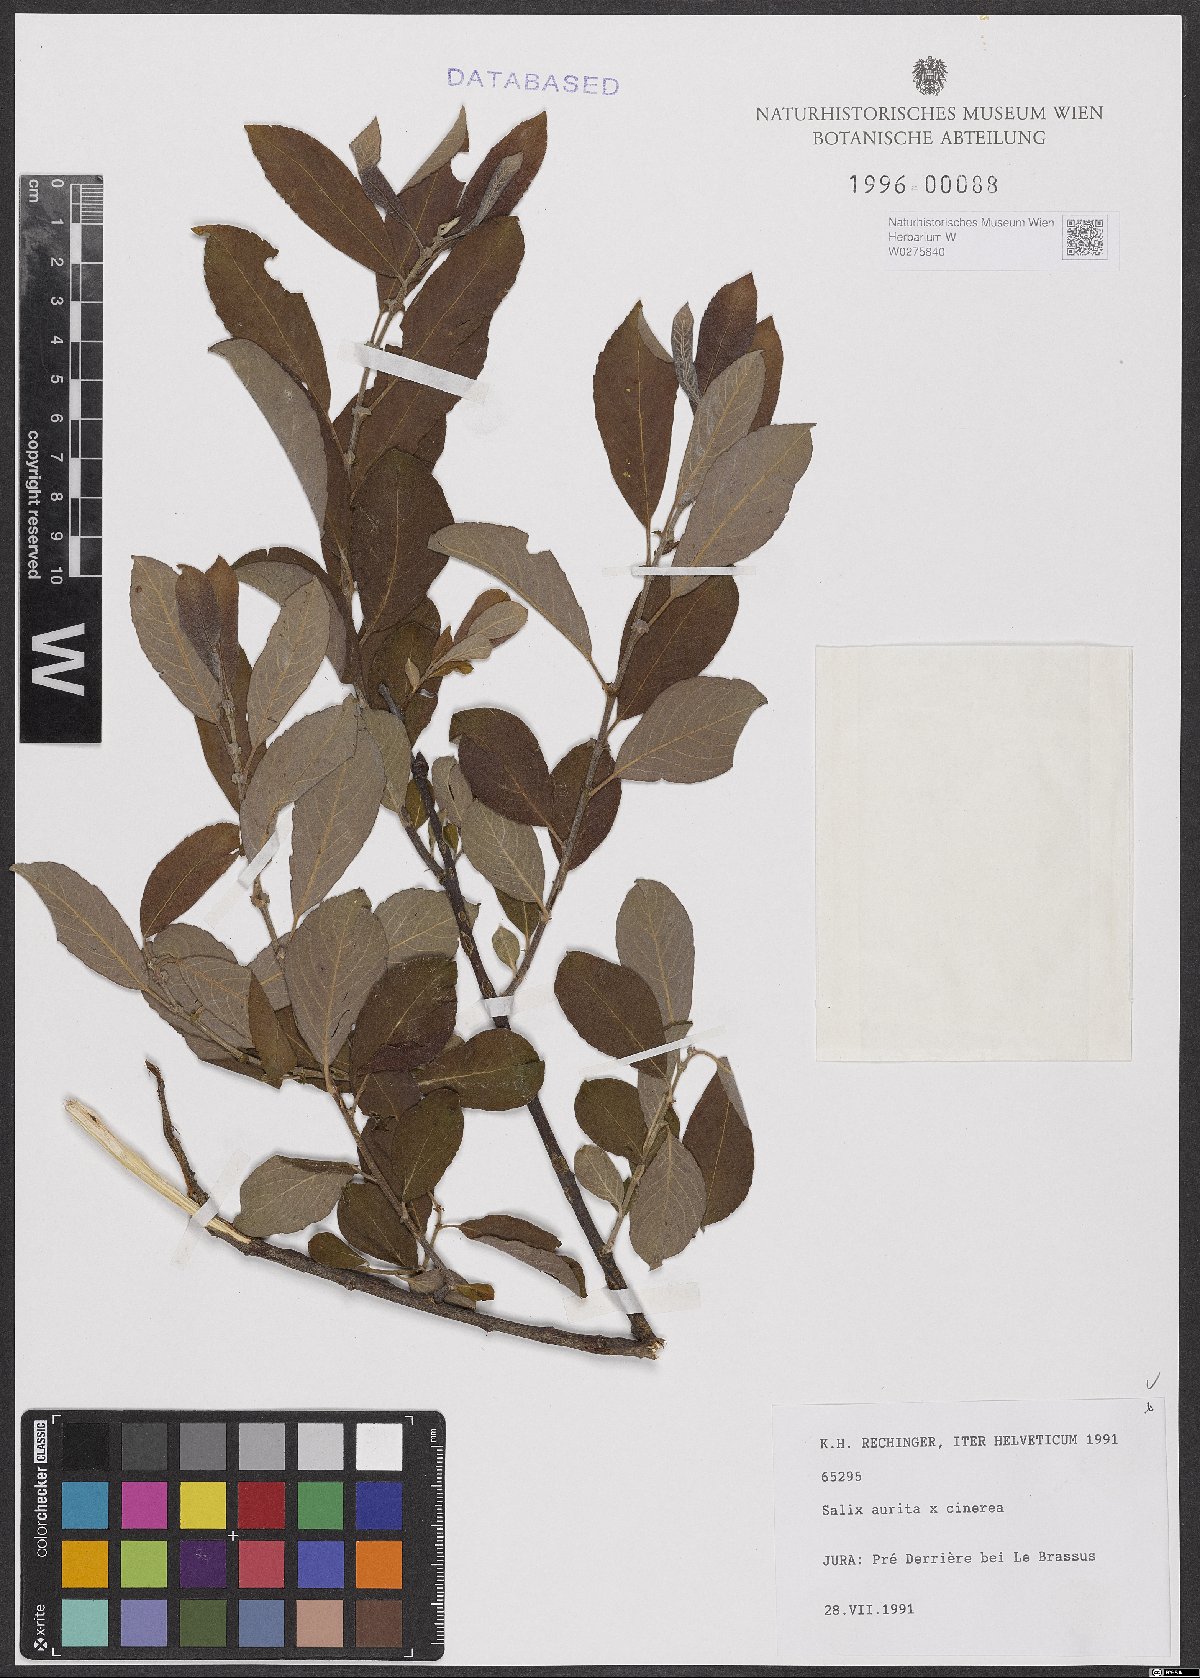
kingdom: Plantae
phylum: Tracheophyta
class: Magnoliopsida
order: Malpighiales
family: Salicaceae
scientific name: Salicaceae
